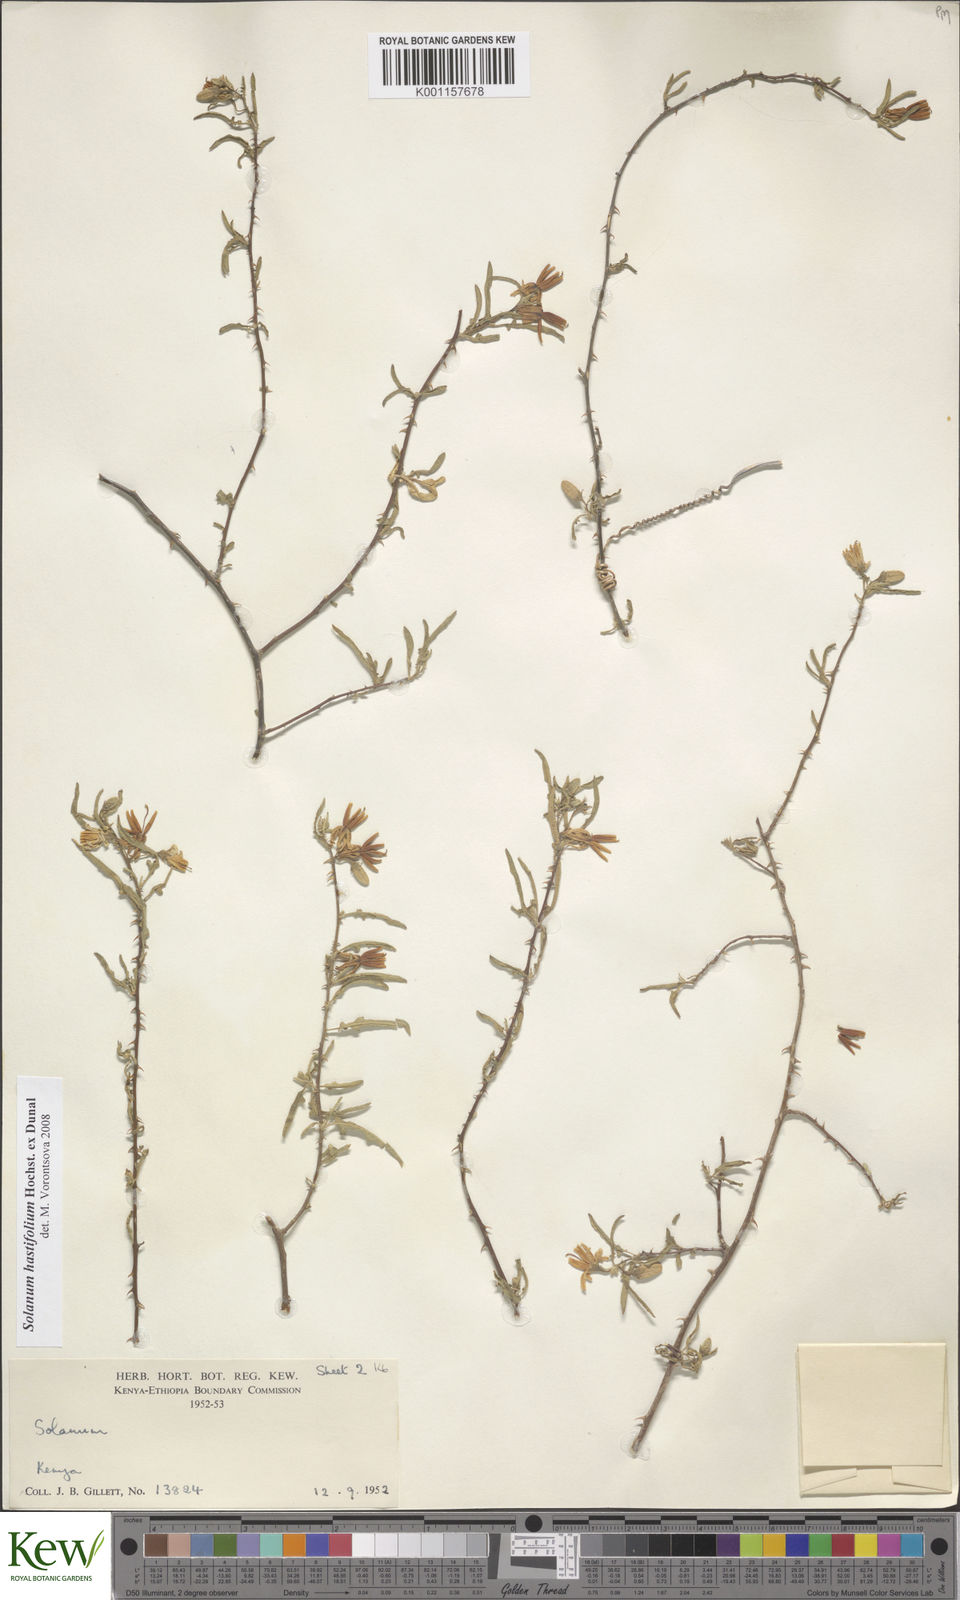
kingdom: Plantae
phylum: Tracheophyta
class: Magnoliopsida
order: Solanales
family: Solanaceae
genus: Solanum
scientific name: Solanum hastifolium
